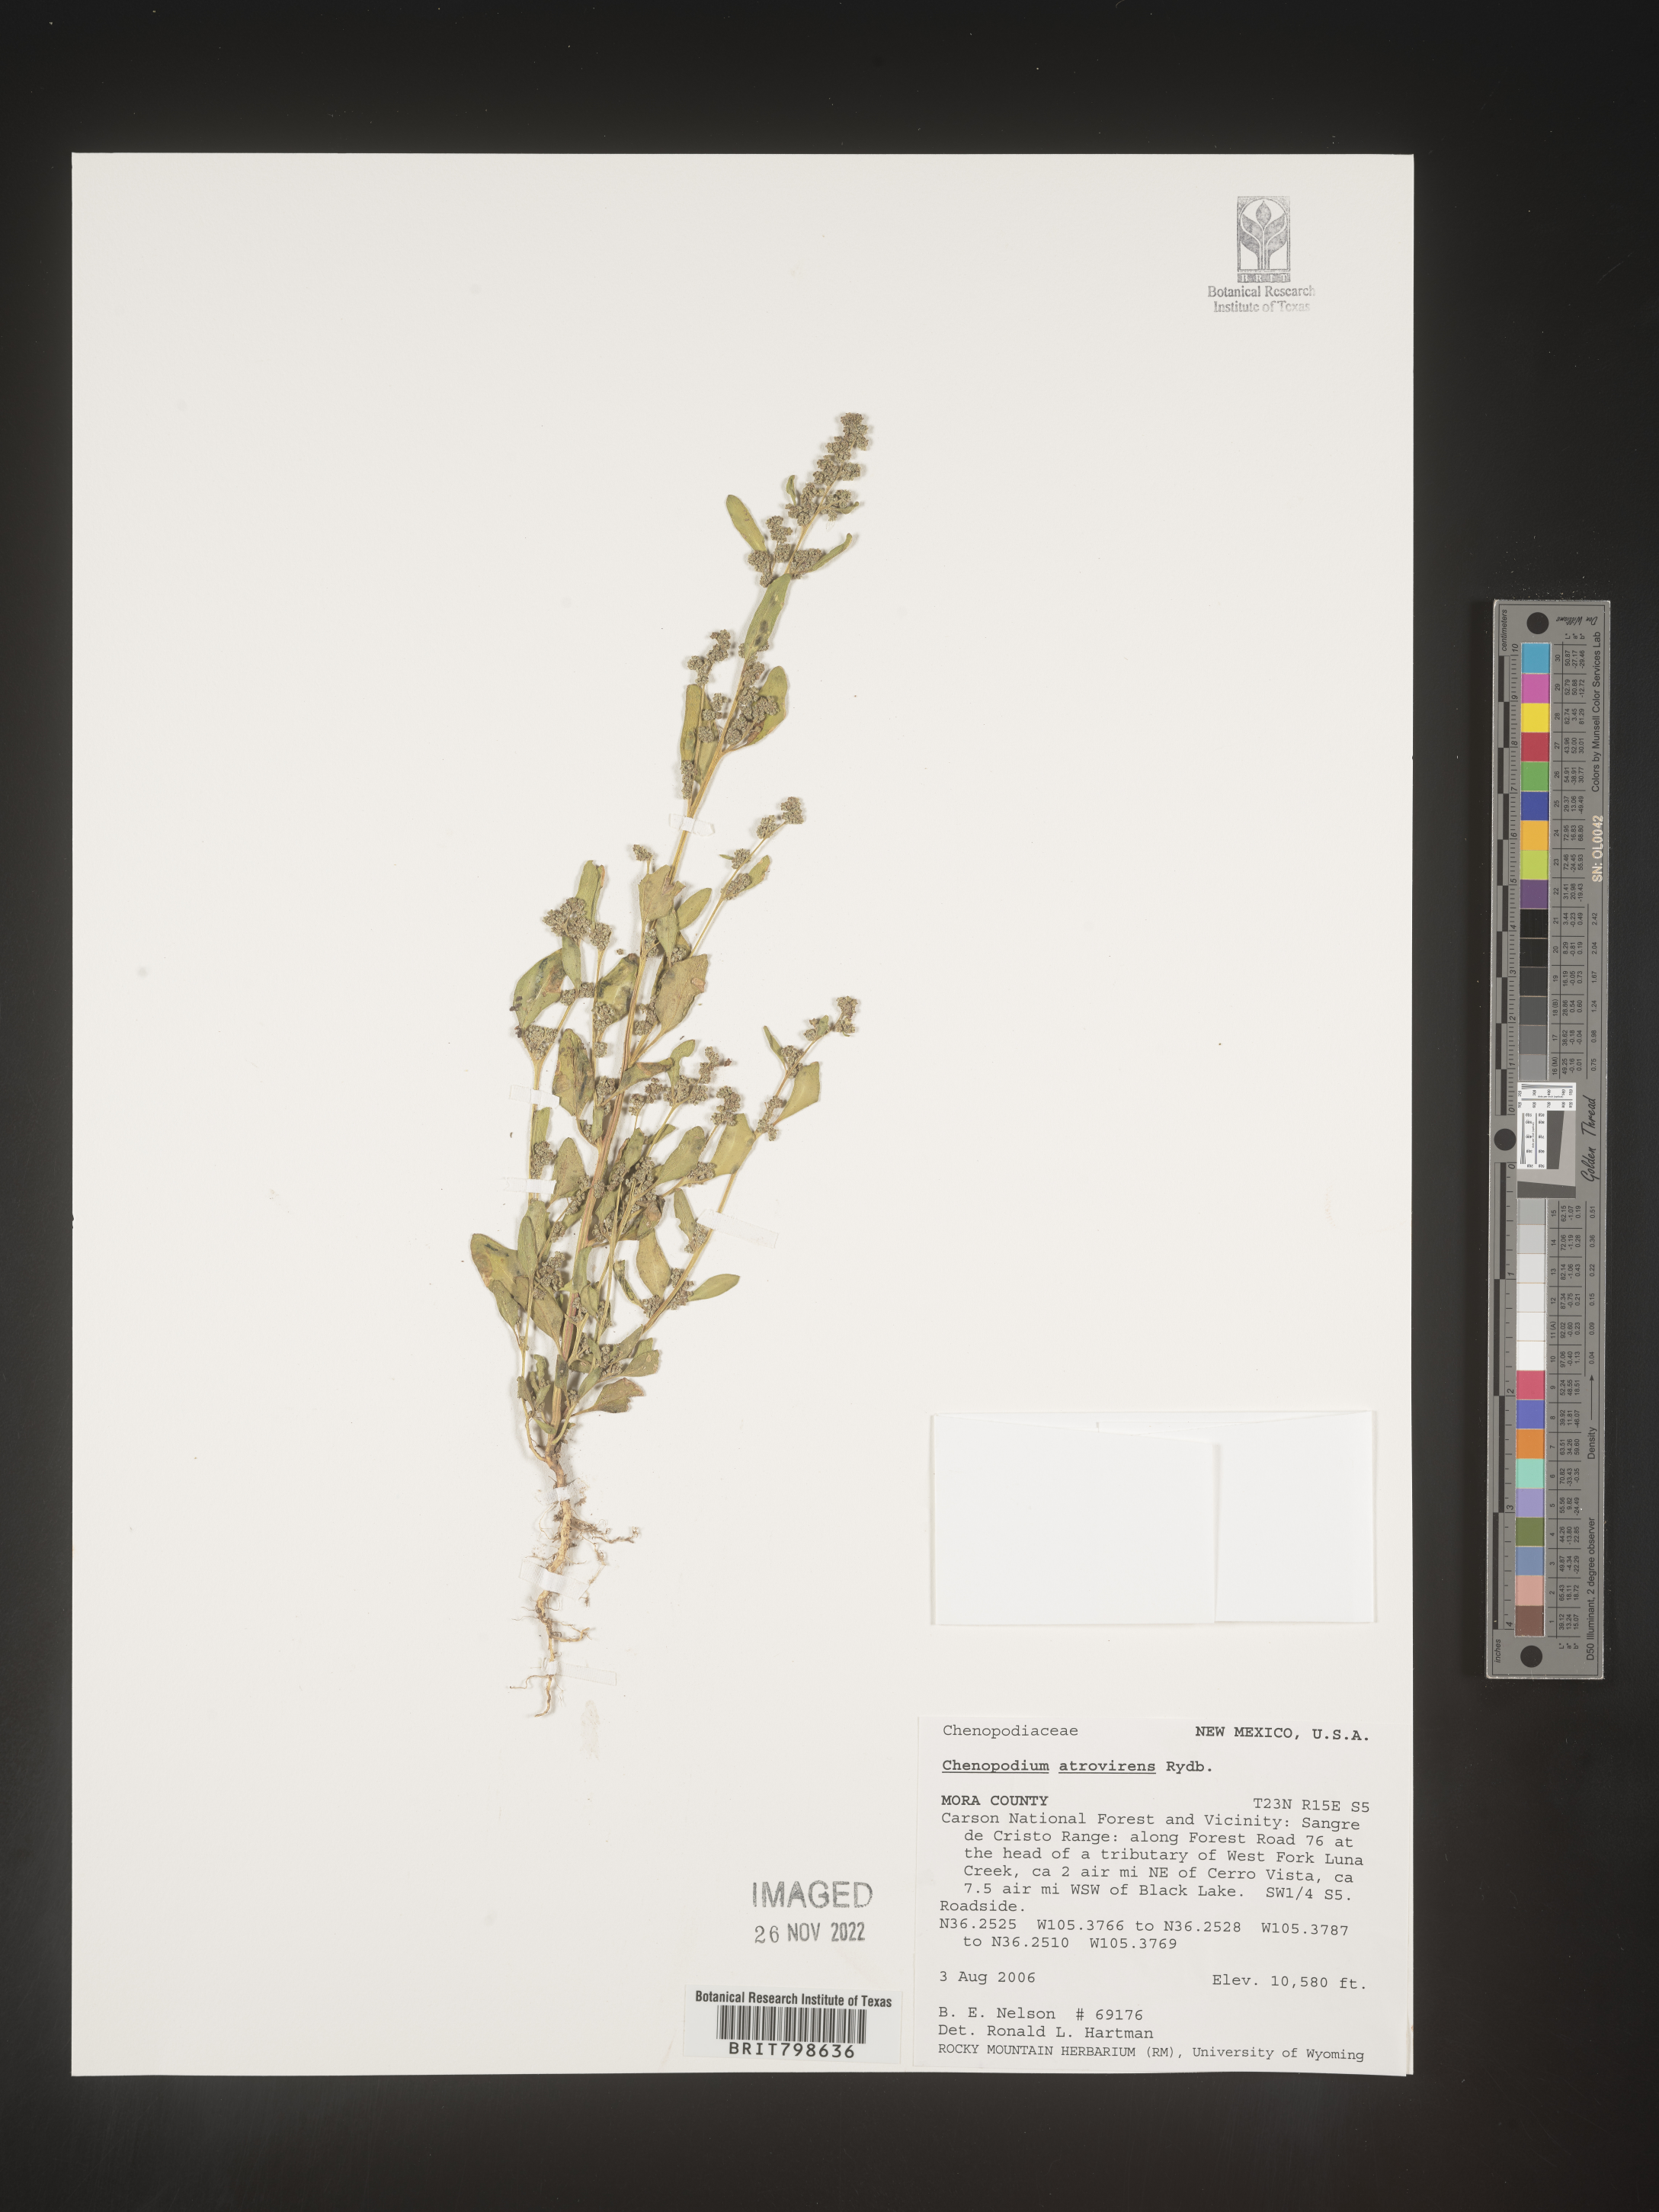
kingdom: Plantae
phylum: Tracheophyta
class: Magnoliopsida
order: Caryophyllales
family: Amaranthaceae
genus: Chenopodium
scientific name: Chenopodium atrovirens
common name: Dark goosefoot
